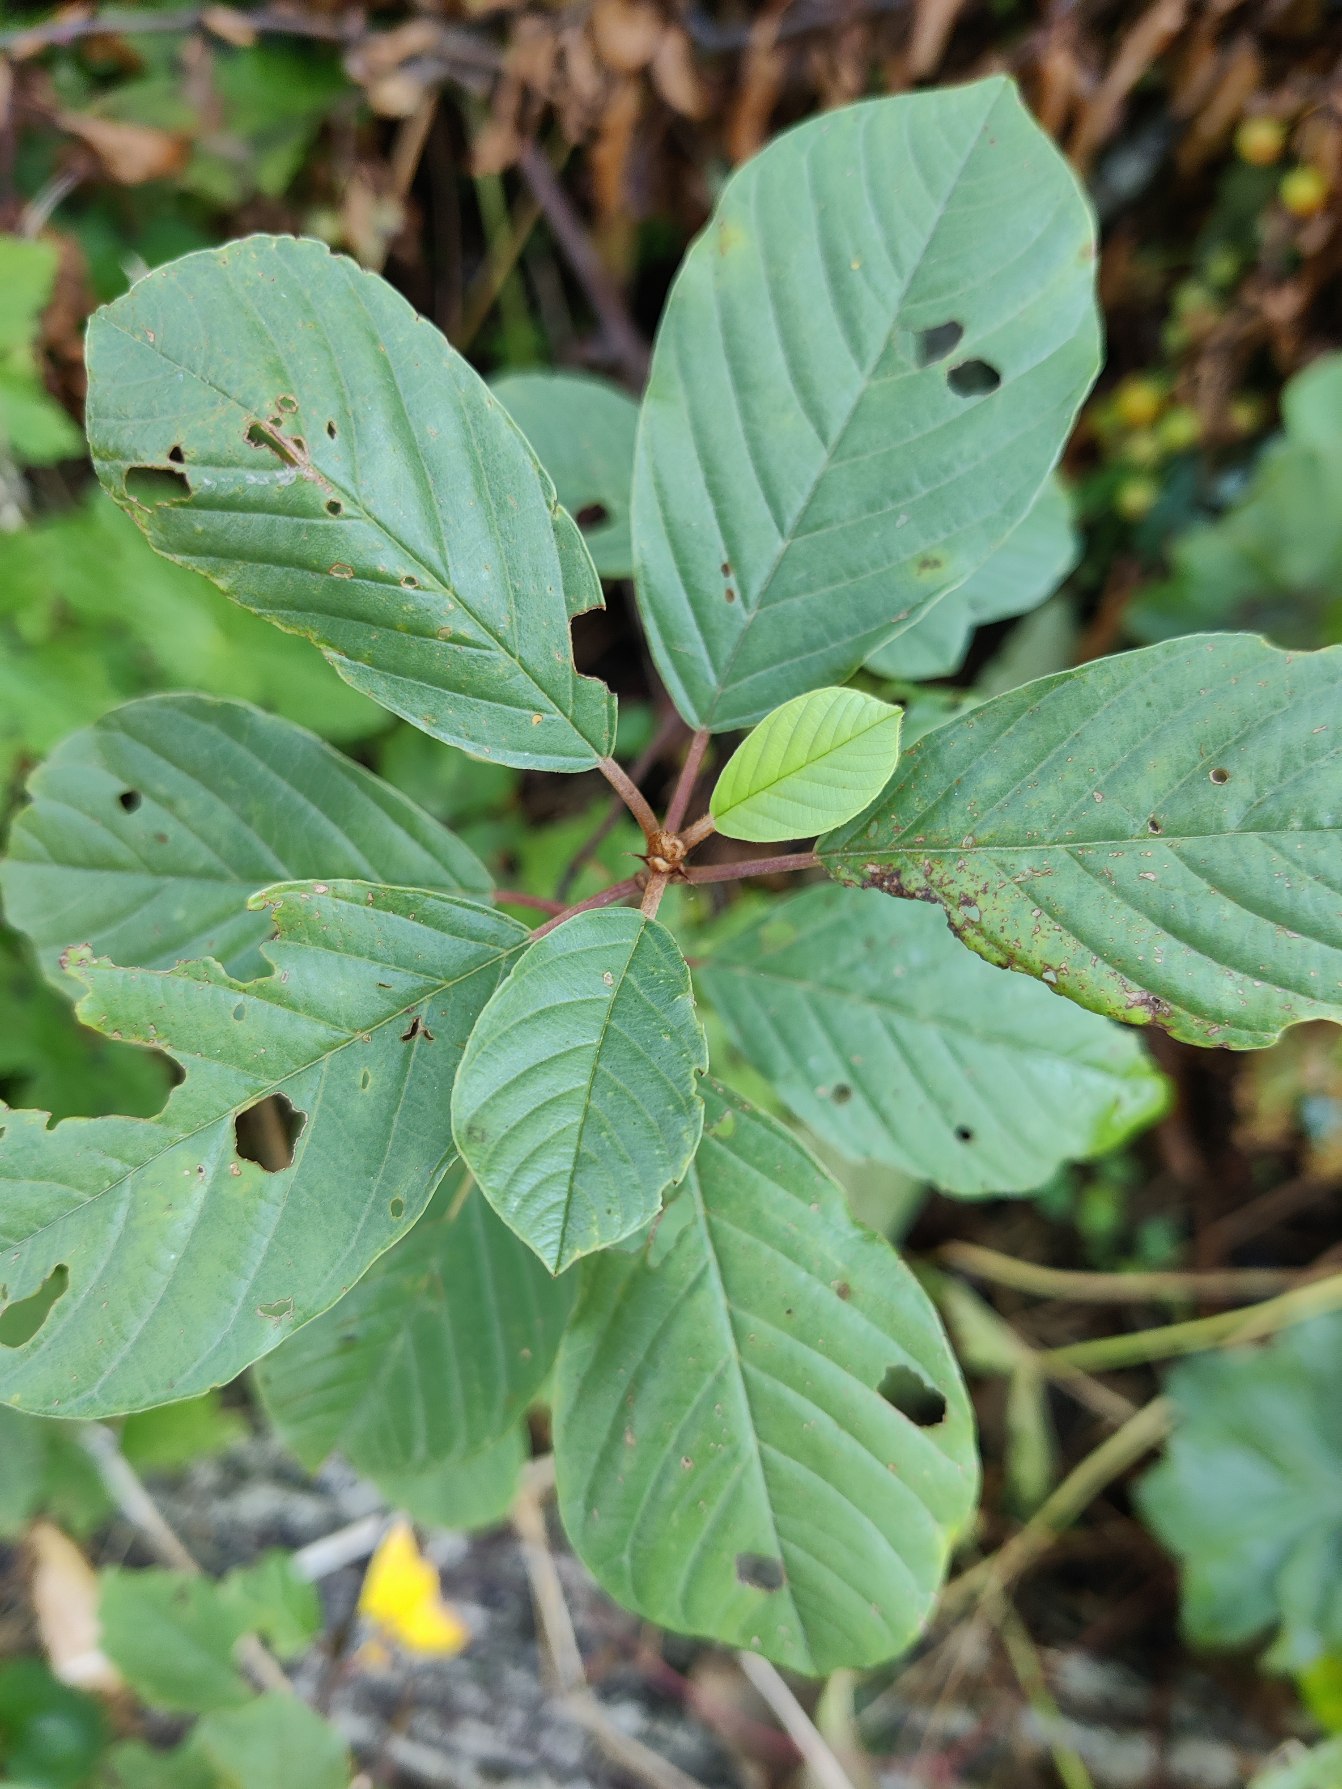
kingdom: Plantae
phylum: Tracheophyta
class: Magnoliopsida
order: Rosales
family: Rhamnaceae
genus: Frangula
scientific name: Frangula alnus
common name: Tørst
